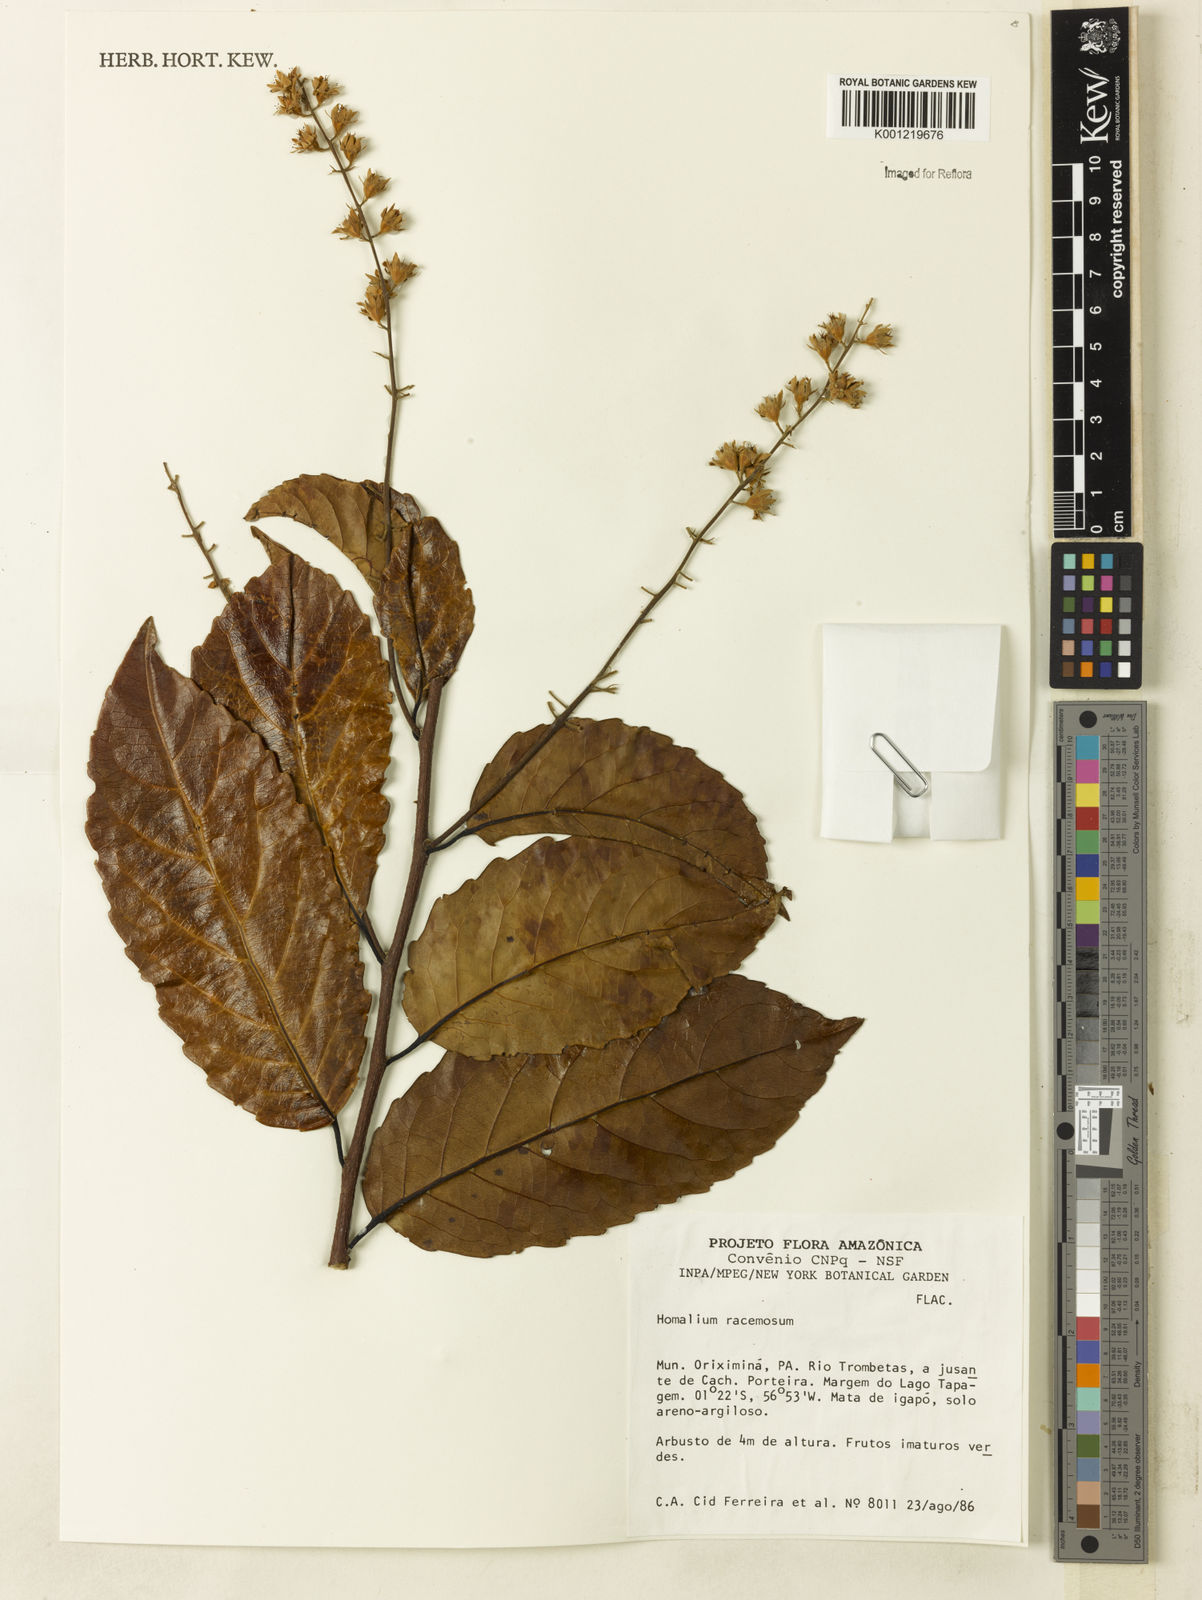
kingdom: Plantae
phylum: Tracheophyta
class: Magnoliopsida
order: Malpighiales
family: Salicaceae
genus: Homalium
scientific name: Homalium racemosum
